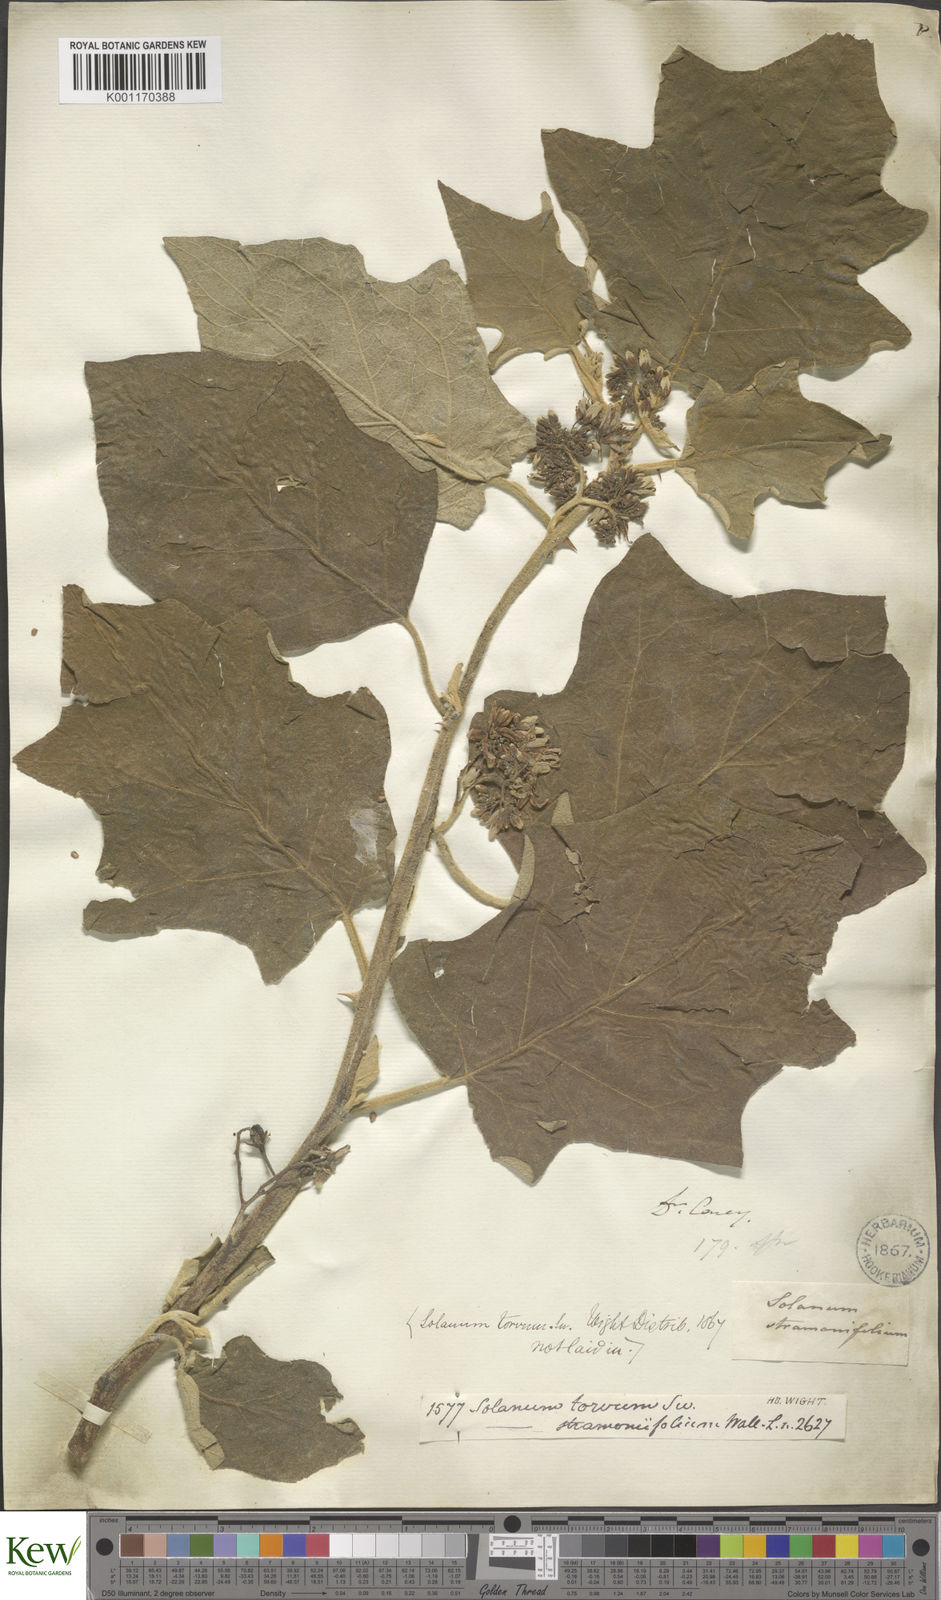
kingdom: Plantae
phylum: Tracheophyta
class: Magnoliopsida
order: Solanales
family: Solanaceae
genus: Solanum
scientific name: Solanum torvum
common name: Turkey berry
